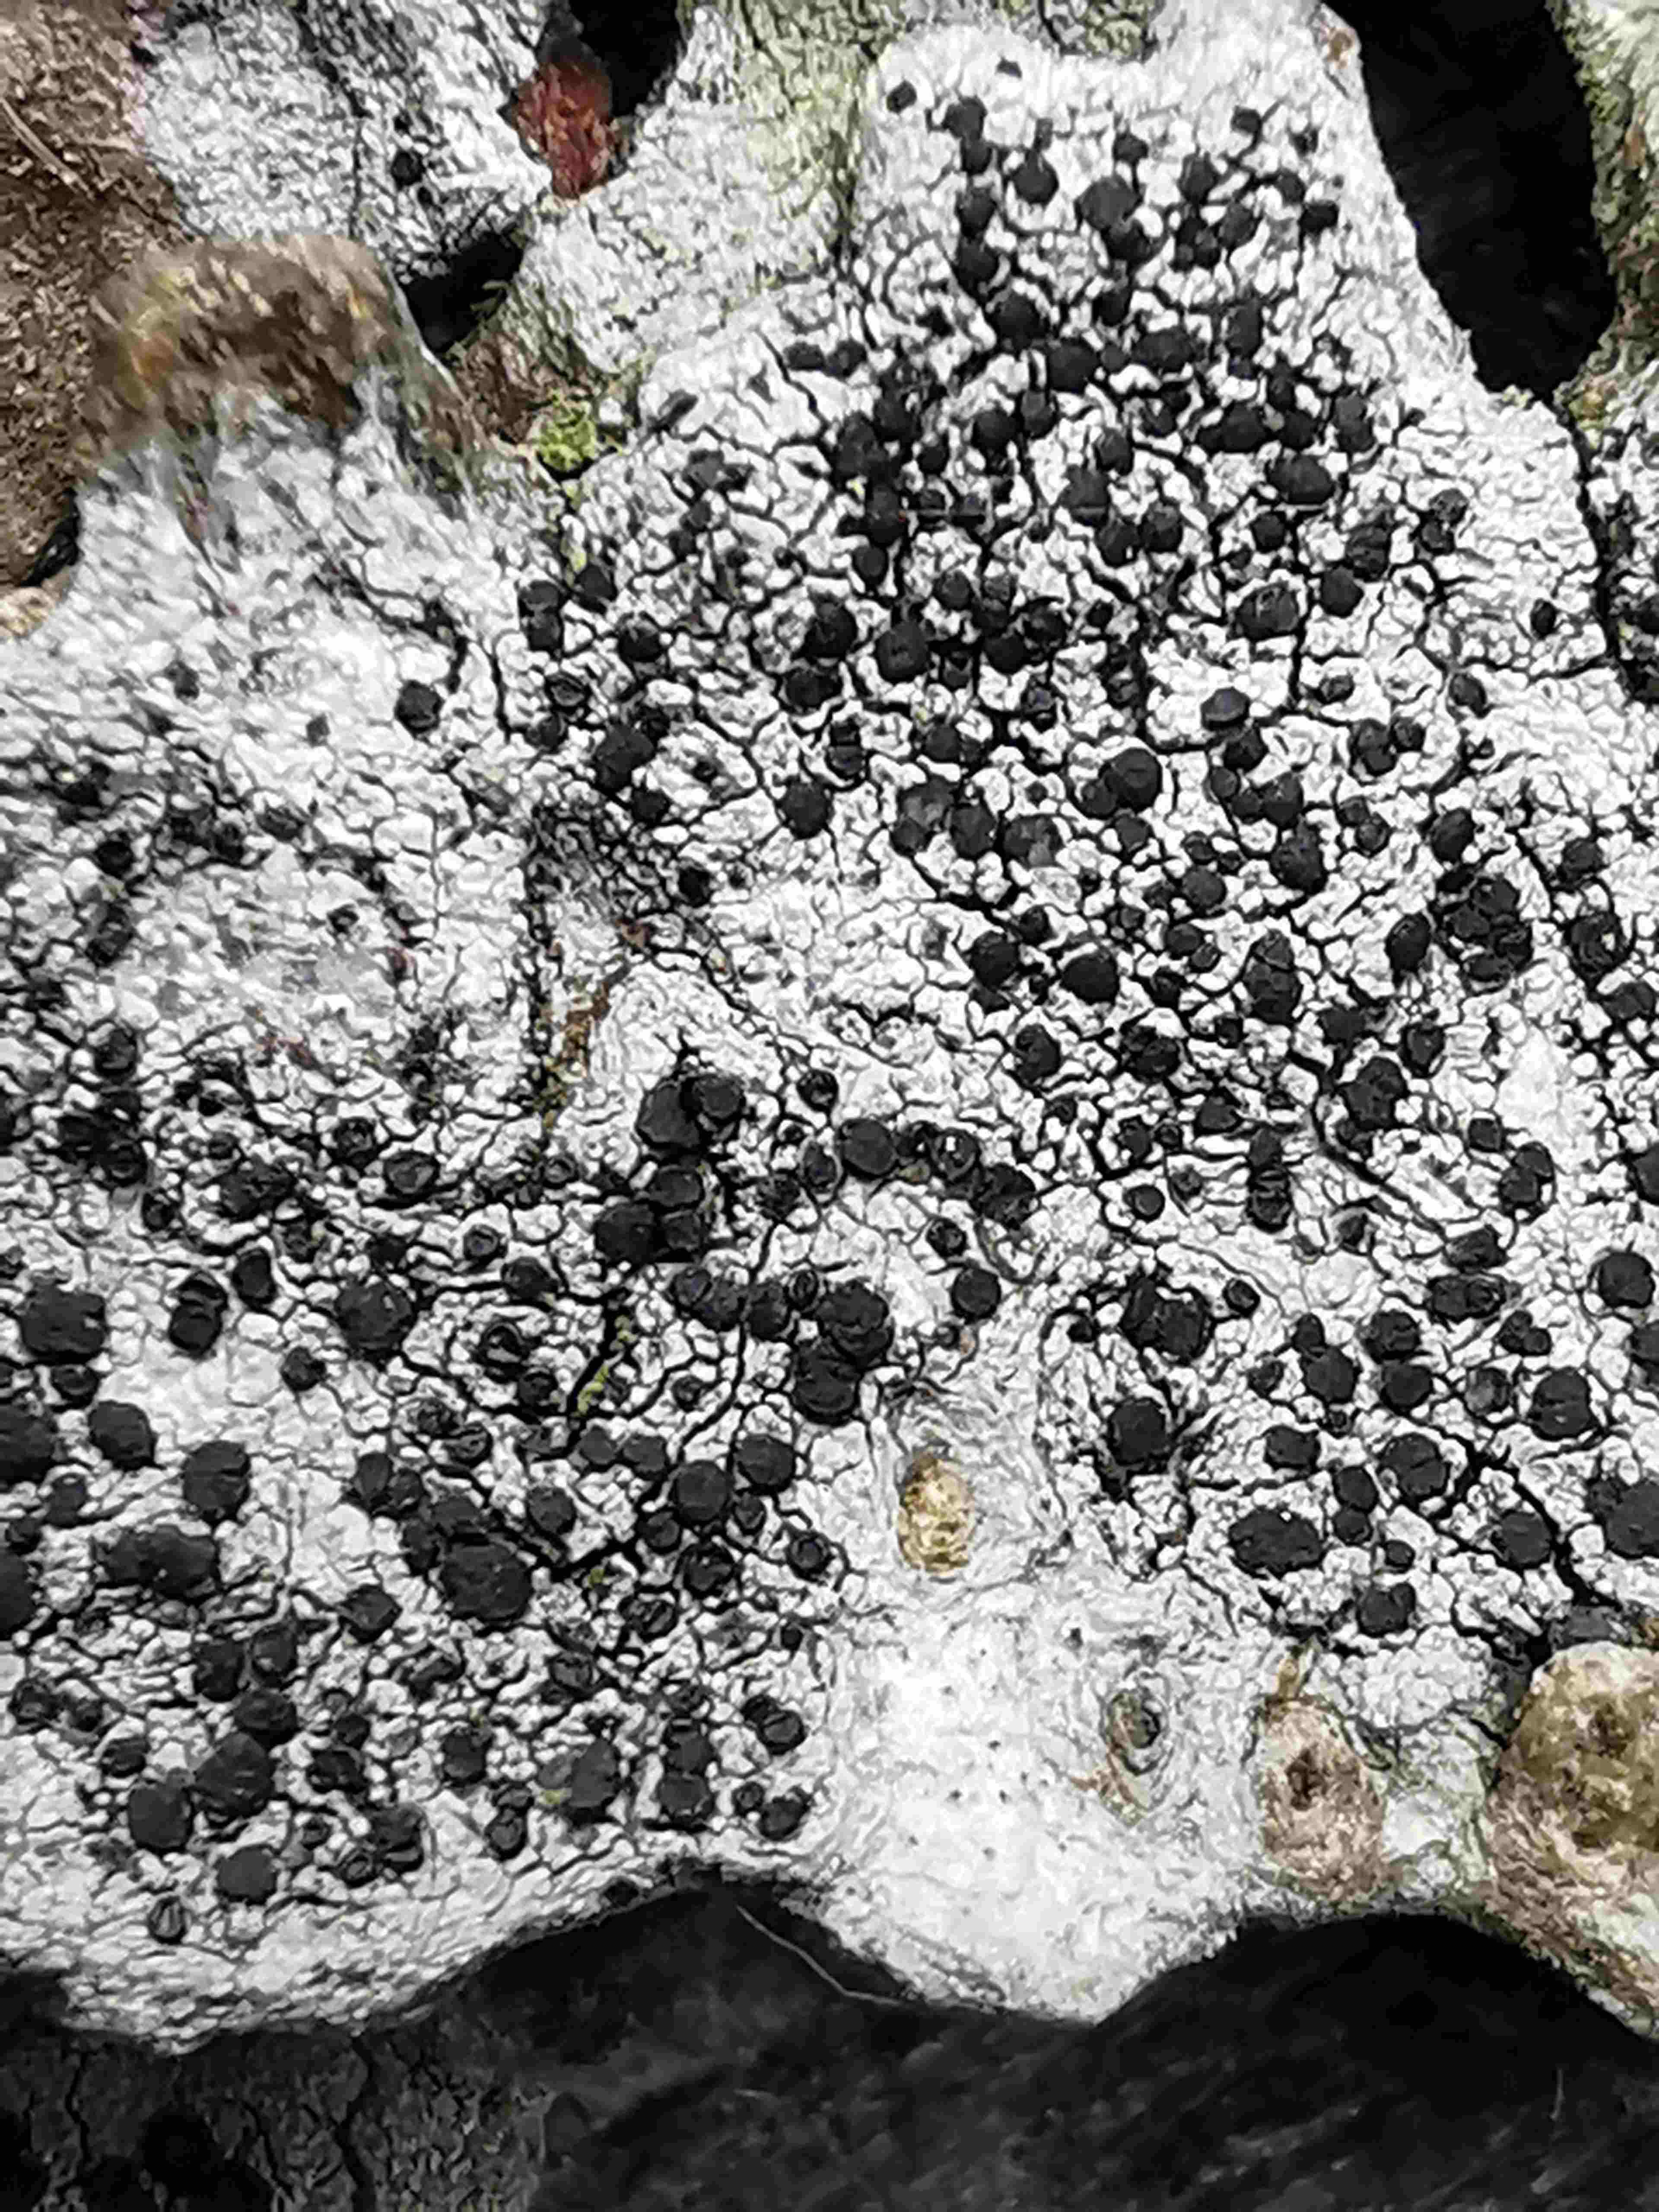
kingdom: Fungi
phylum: Ascomycota
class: Lecanoromycetes
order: Lecanorales
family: Lecanoraceae
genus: Lecidella
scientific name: Lecidella elaeochroma
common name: grågrøn skivelav
